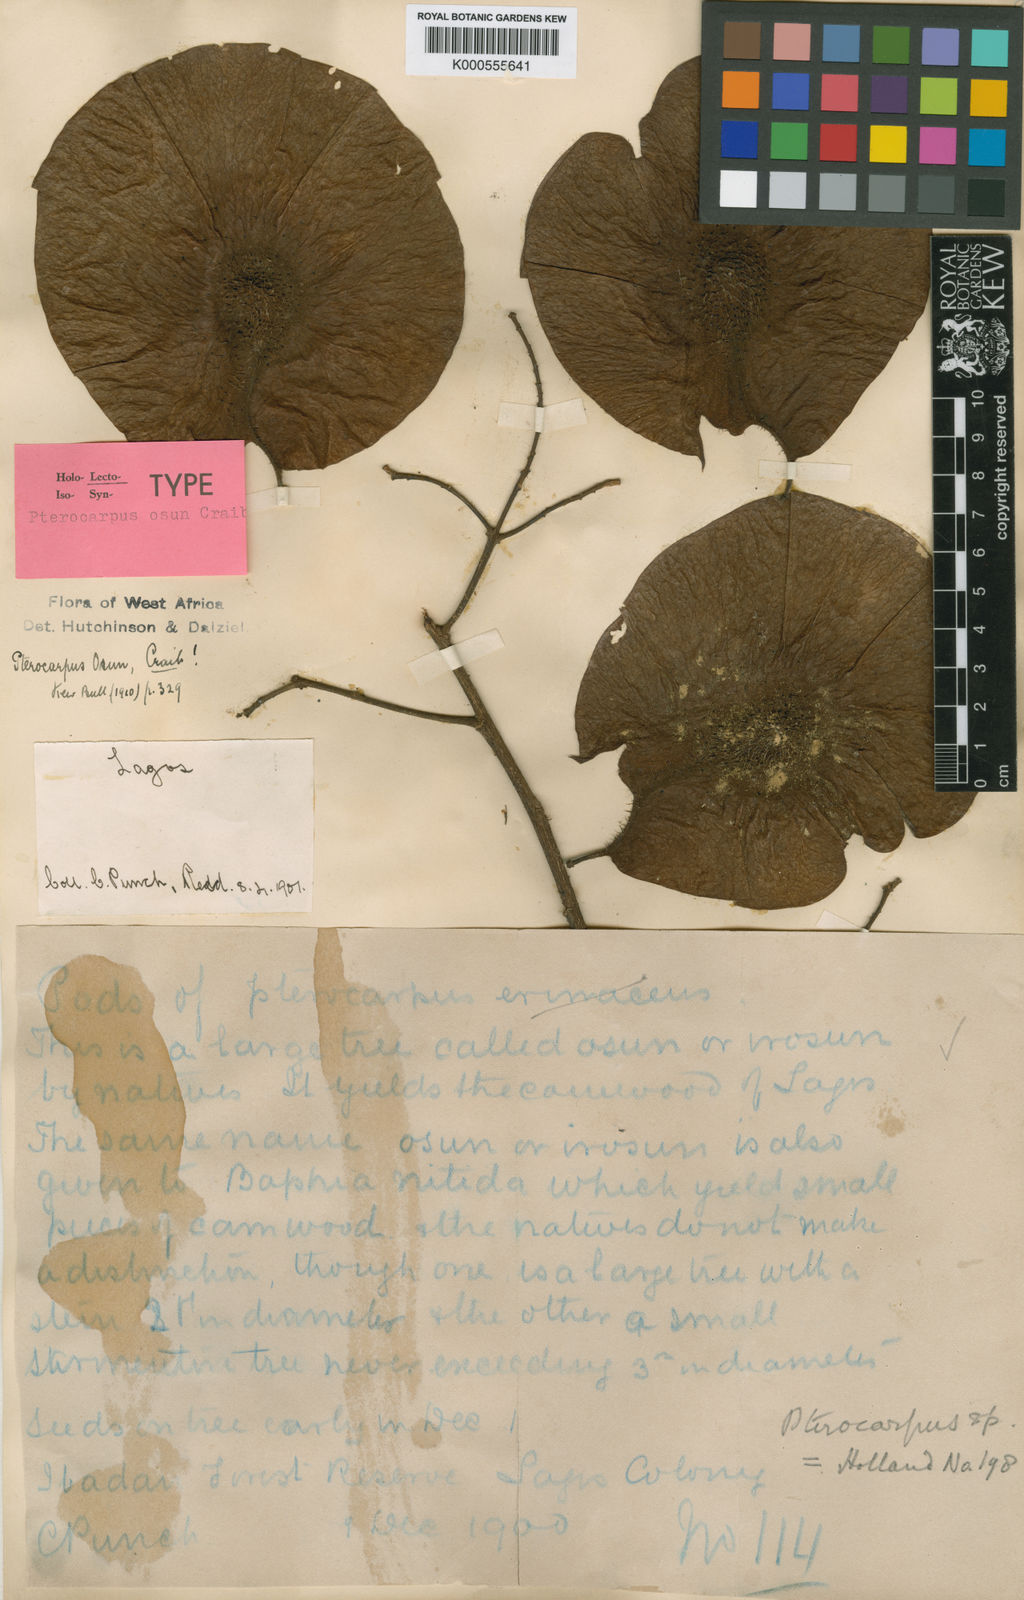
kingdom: Plantae
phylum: Tracheophyta
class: Magnoliopsida
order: Fabales
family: Fabaceae
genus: Pterocarpus
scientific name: Pterocarpus osun
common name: Camwood
